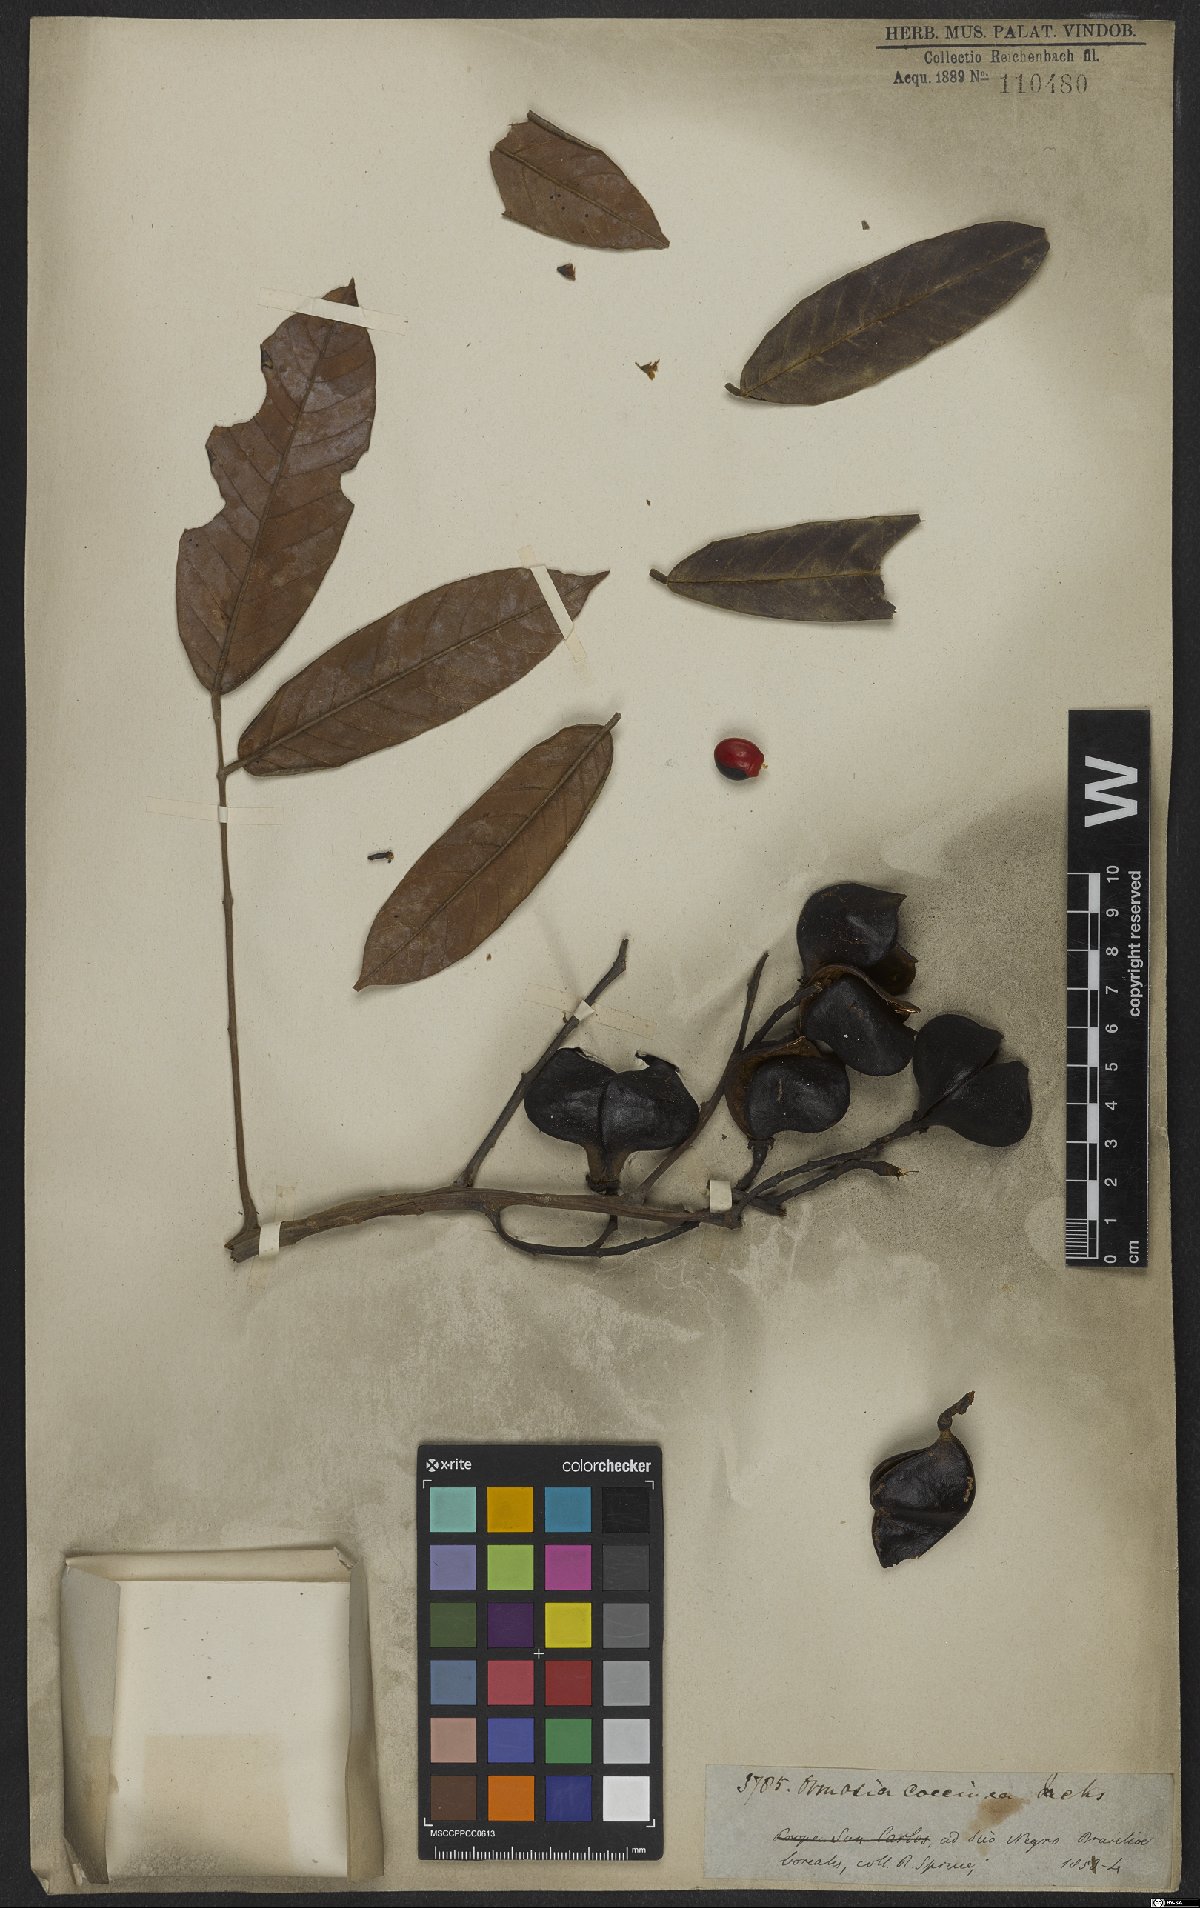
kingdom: Plantae
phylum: Tracheophyta
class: Magnoliopsida
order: Fabales
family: Fabaceae
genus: Ormosia
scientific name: Ormosia coccinea
